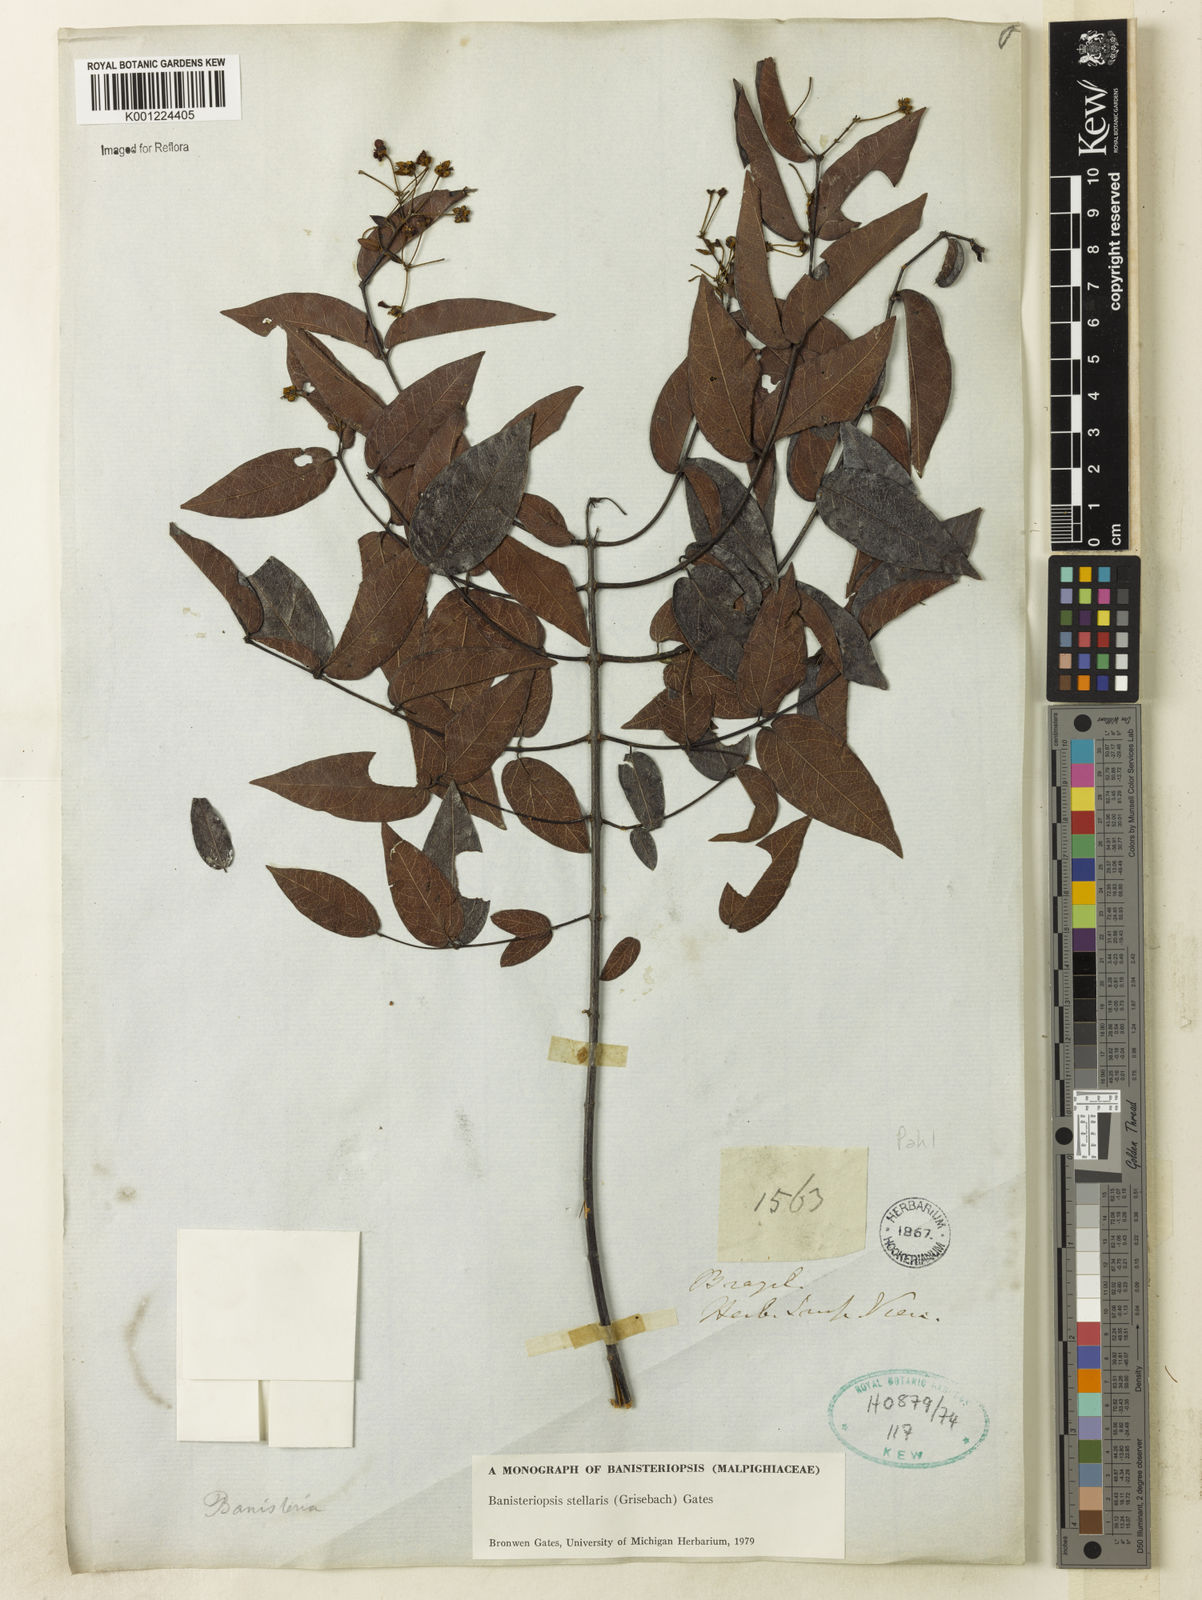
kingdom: Plantae
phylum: Tracheophyta
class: Magnoliopsida
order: Malpighiales
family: Malpighiaceae
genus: Banisteriopsis
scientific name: Banisteriopsis stellaris
